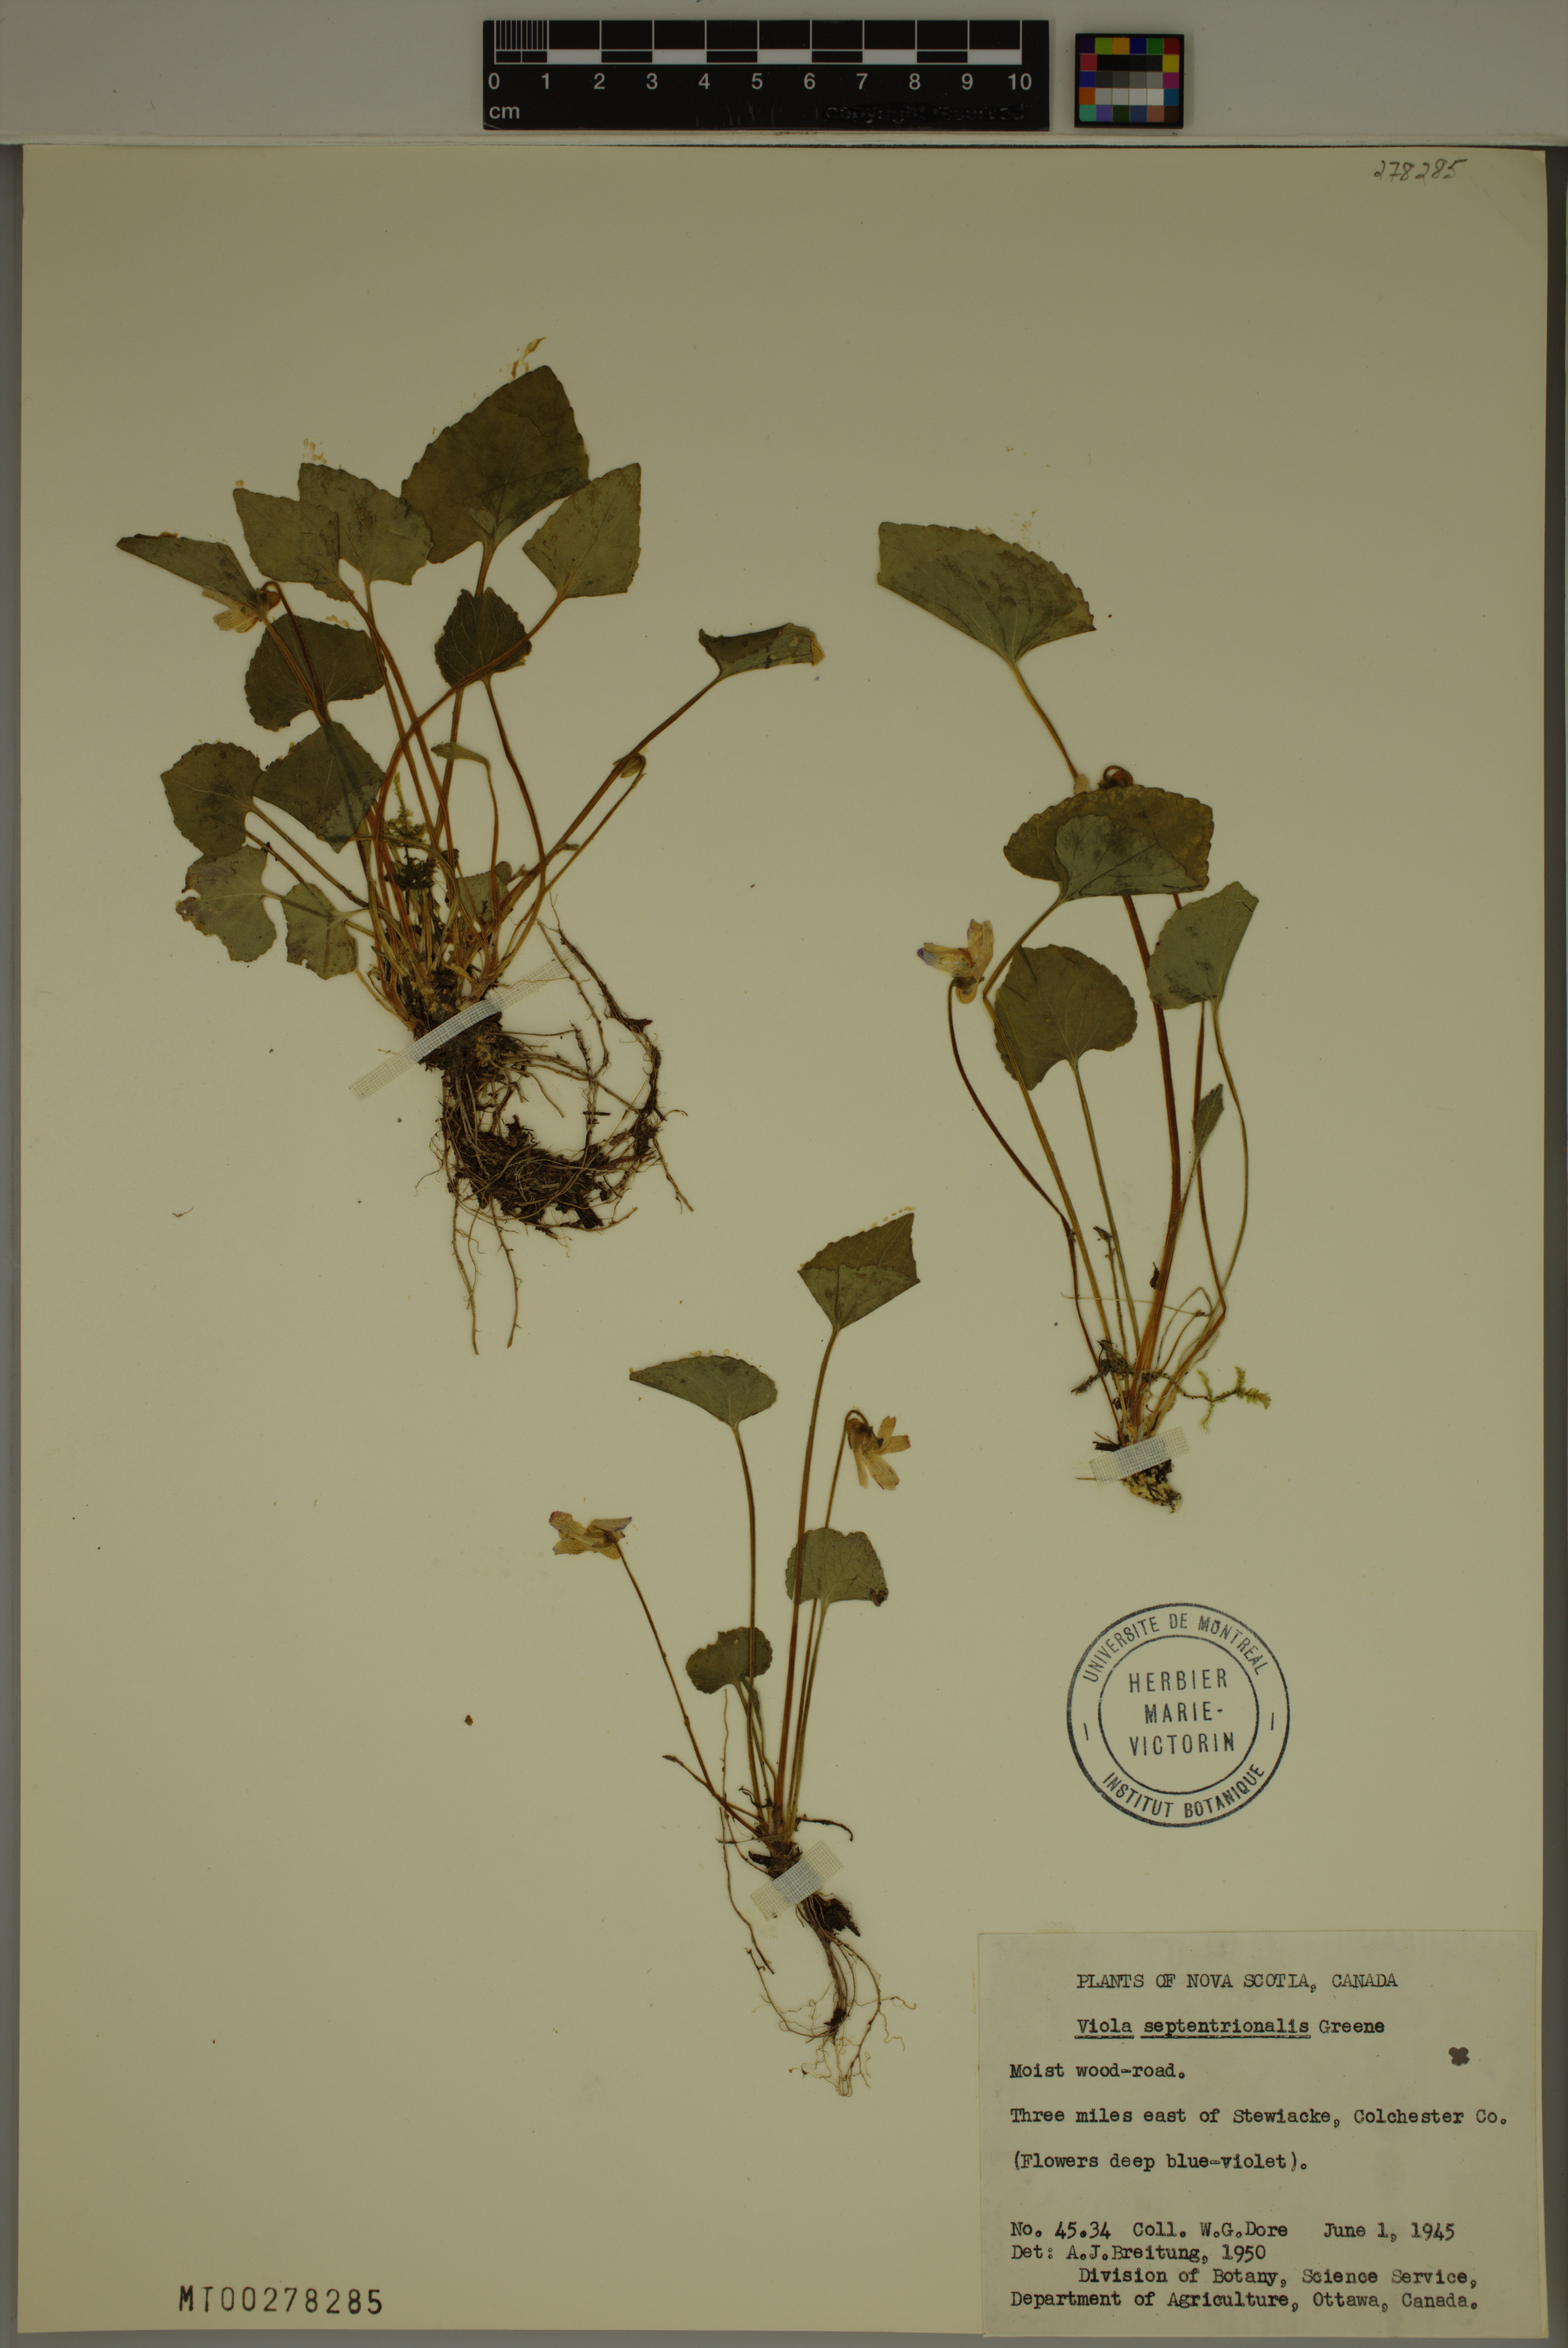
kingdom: Plantae
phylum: Tracheophyta
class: Magnoliopsida
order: Malpighiales
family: Violaceae
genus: Viola
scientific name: Viola septentrionalis
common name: Northern woodland violet
